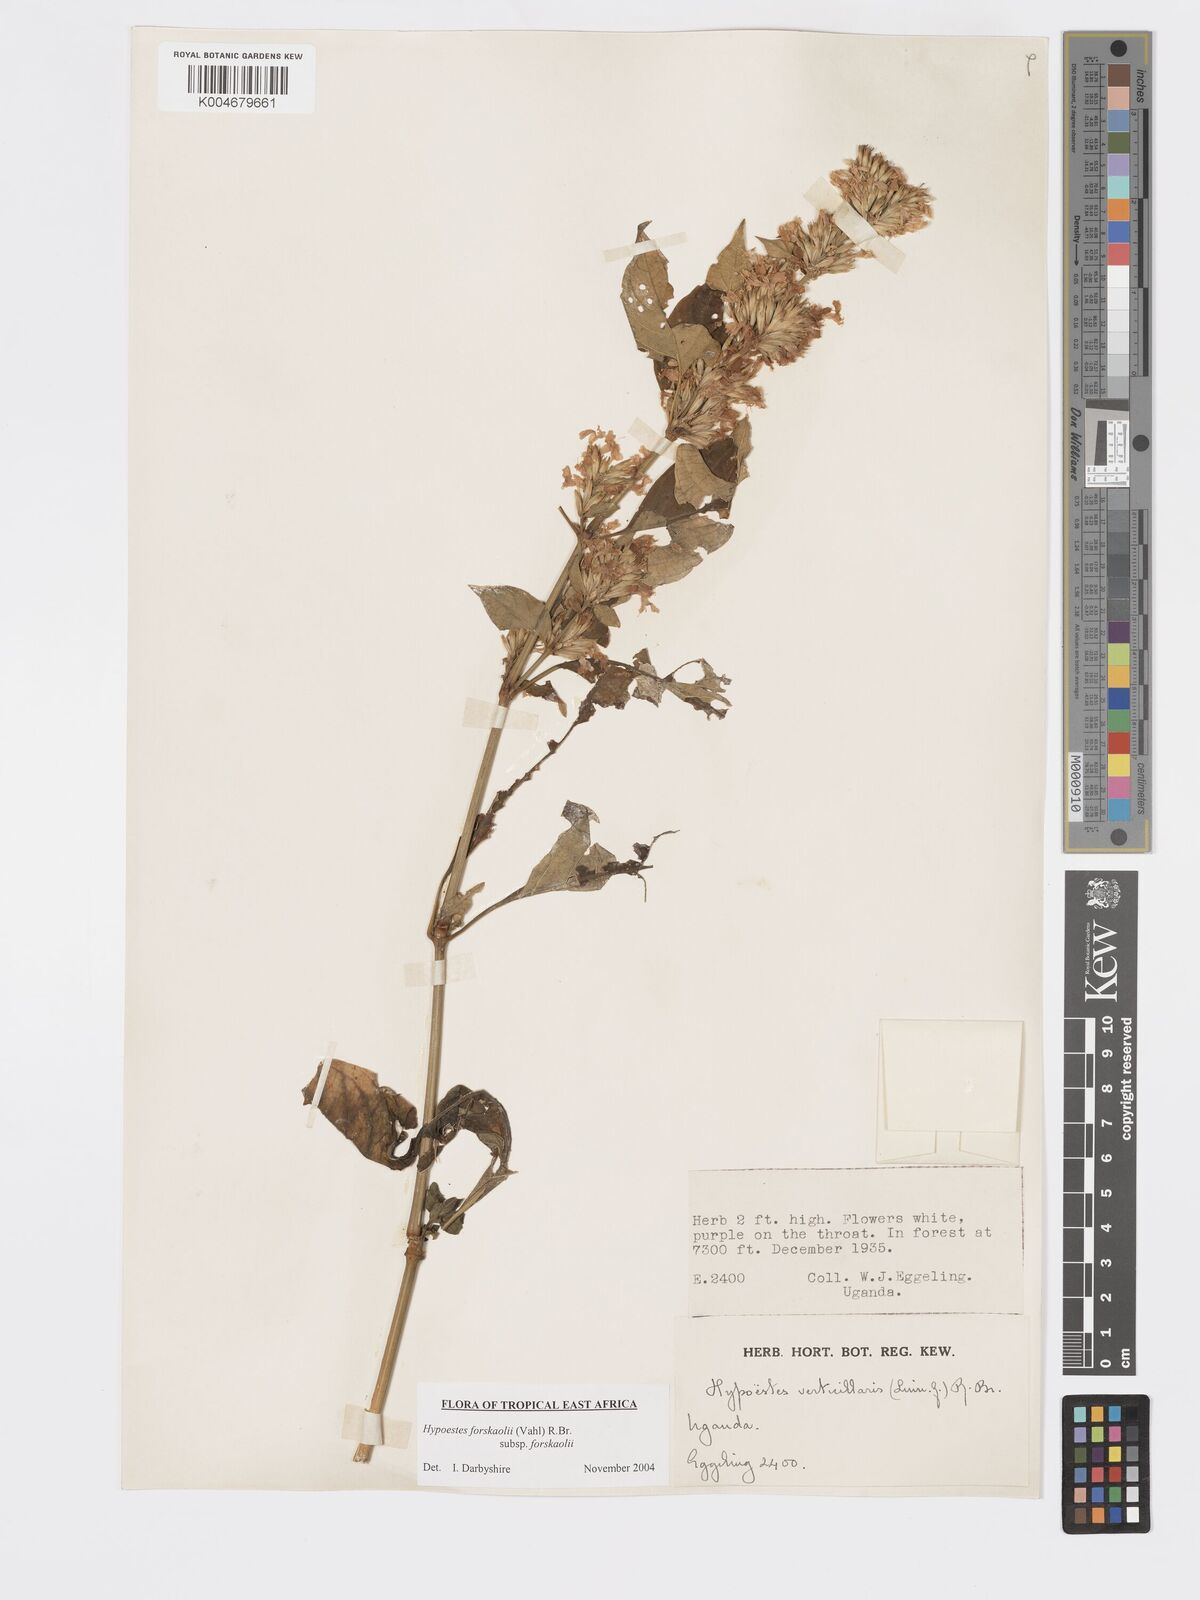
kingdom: Plantae
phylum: Tracheophyta
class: Magnoliopsida
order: Lamiales
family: Acanthaceae
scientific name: Acanthaceae
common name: Acanthaceae
